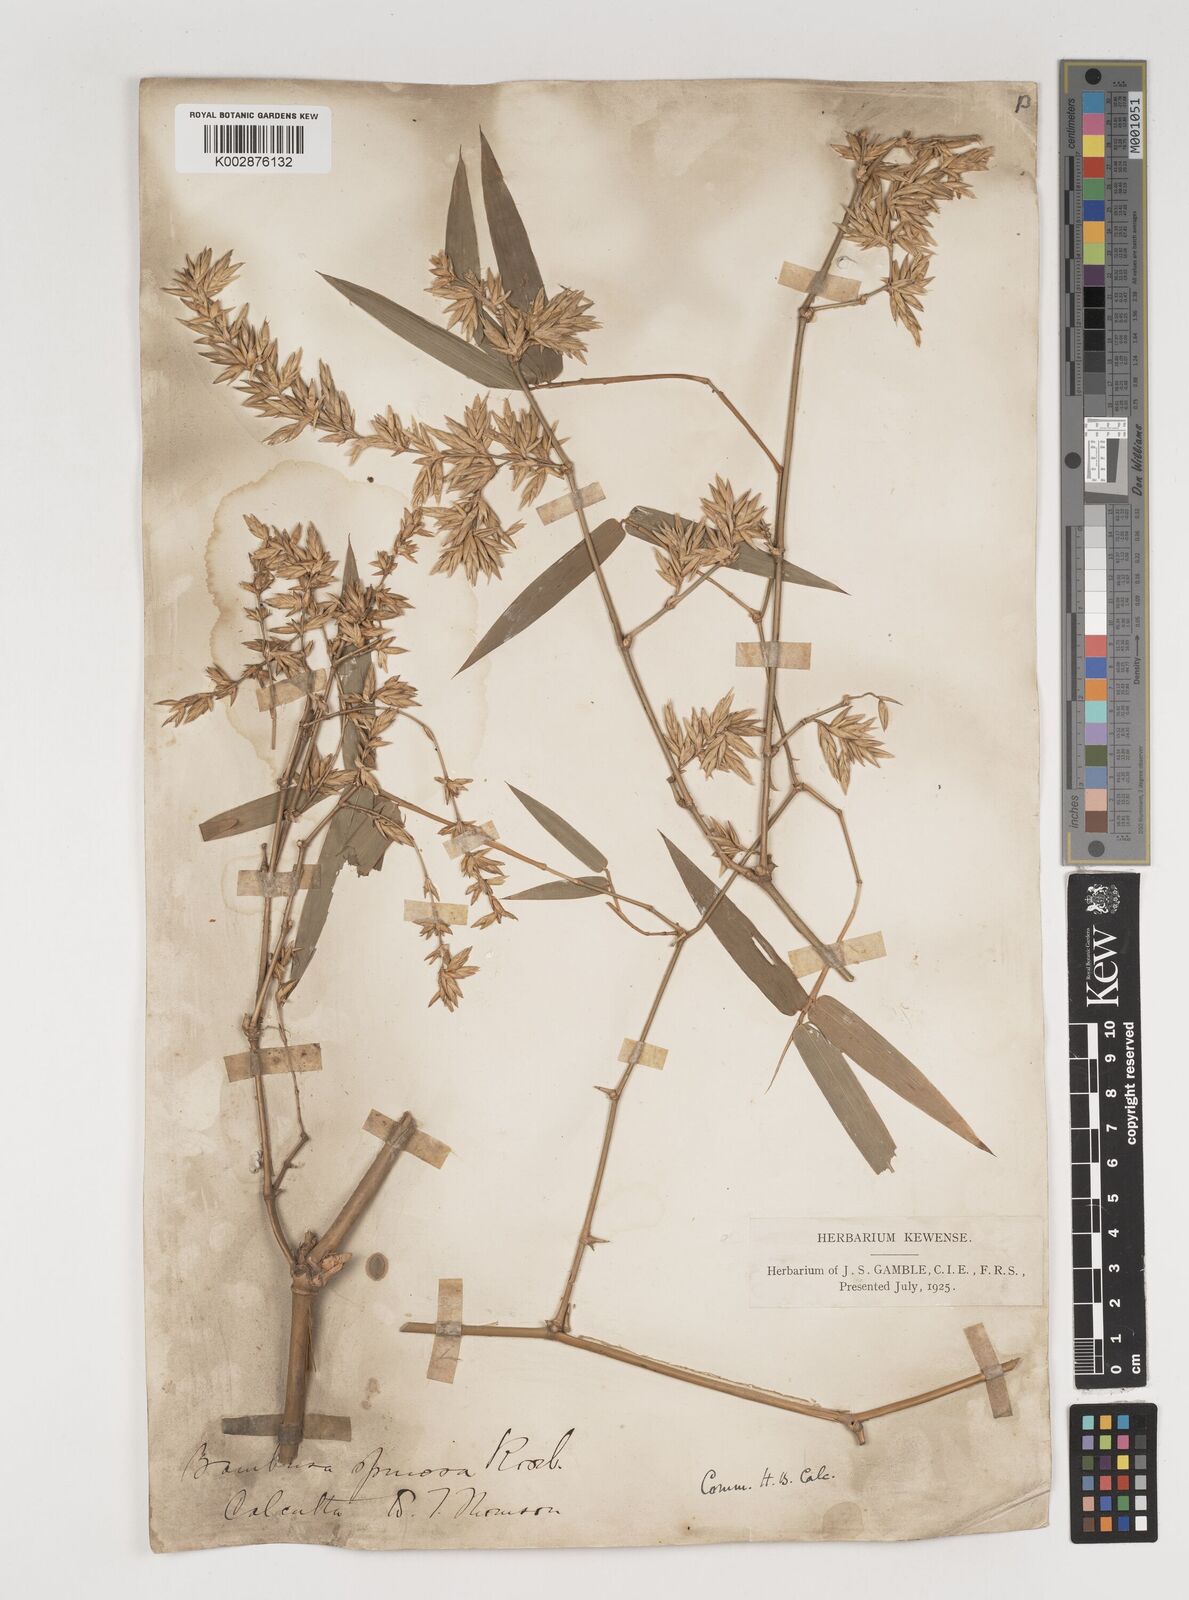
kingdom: Plantae
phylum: Tracheophyta
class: Liliopsida
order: Poales
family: Poaceae
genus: Bambusa
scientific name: Bambusa bambos
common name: Indian thorny bamboo
